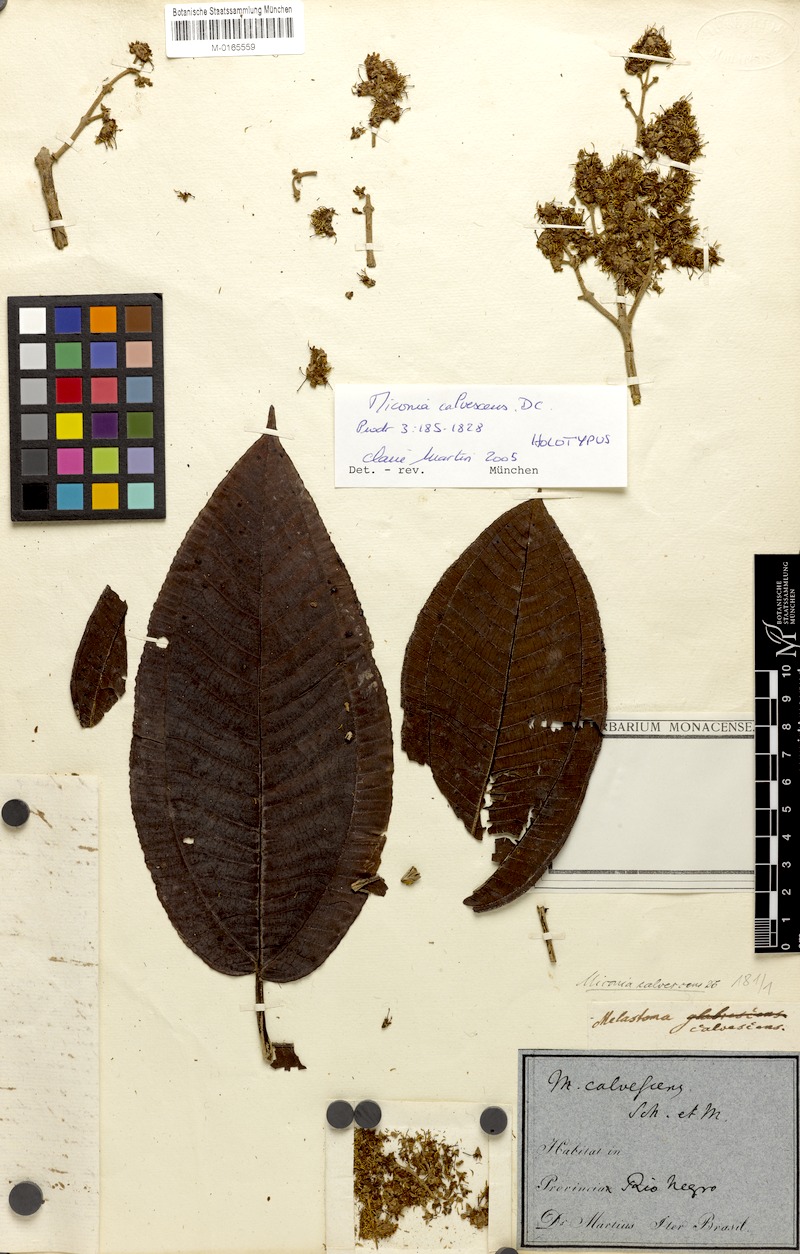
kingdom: Plantae
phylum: Tracheophyta
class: Magnoliopsida
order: Myrtales
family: Melastomataceae
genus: Miconia
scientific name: Miconia calvescens
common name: Purple plague
